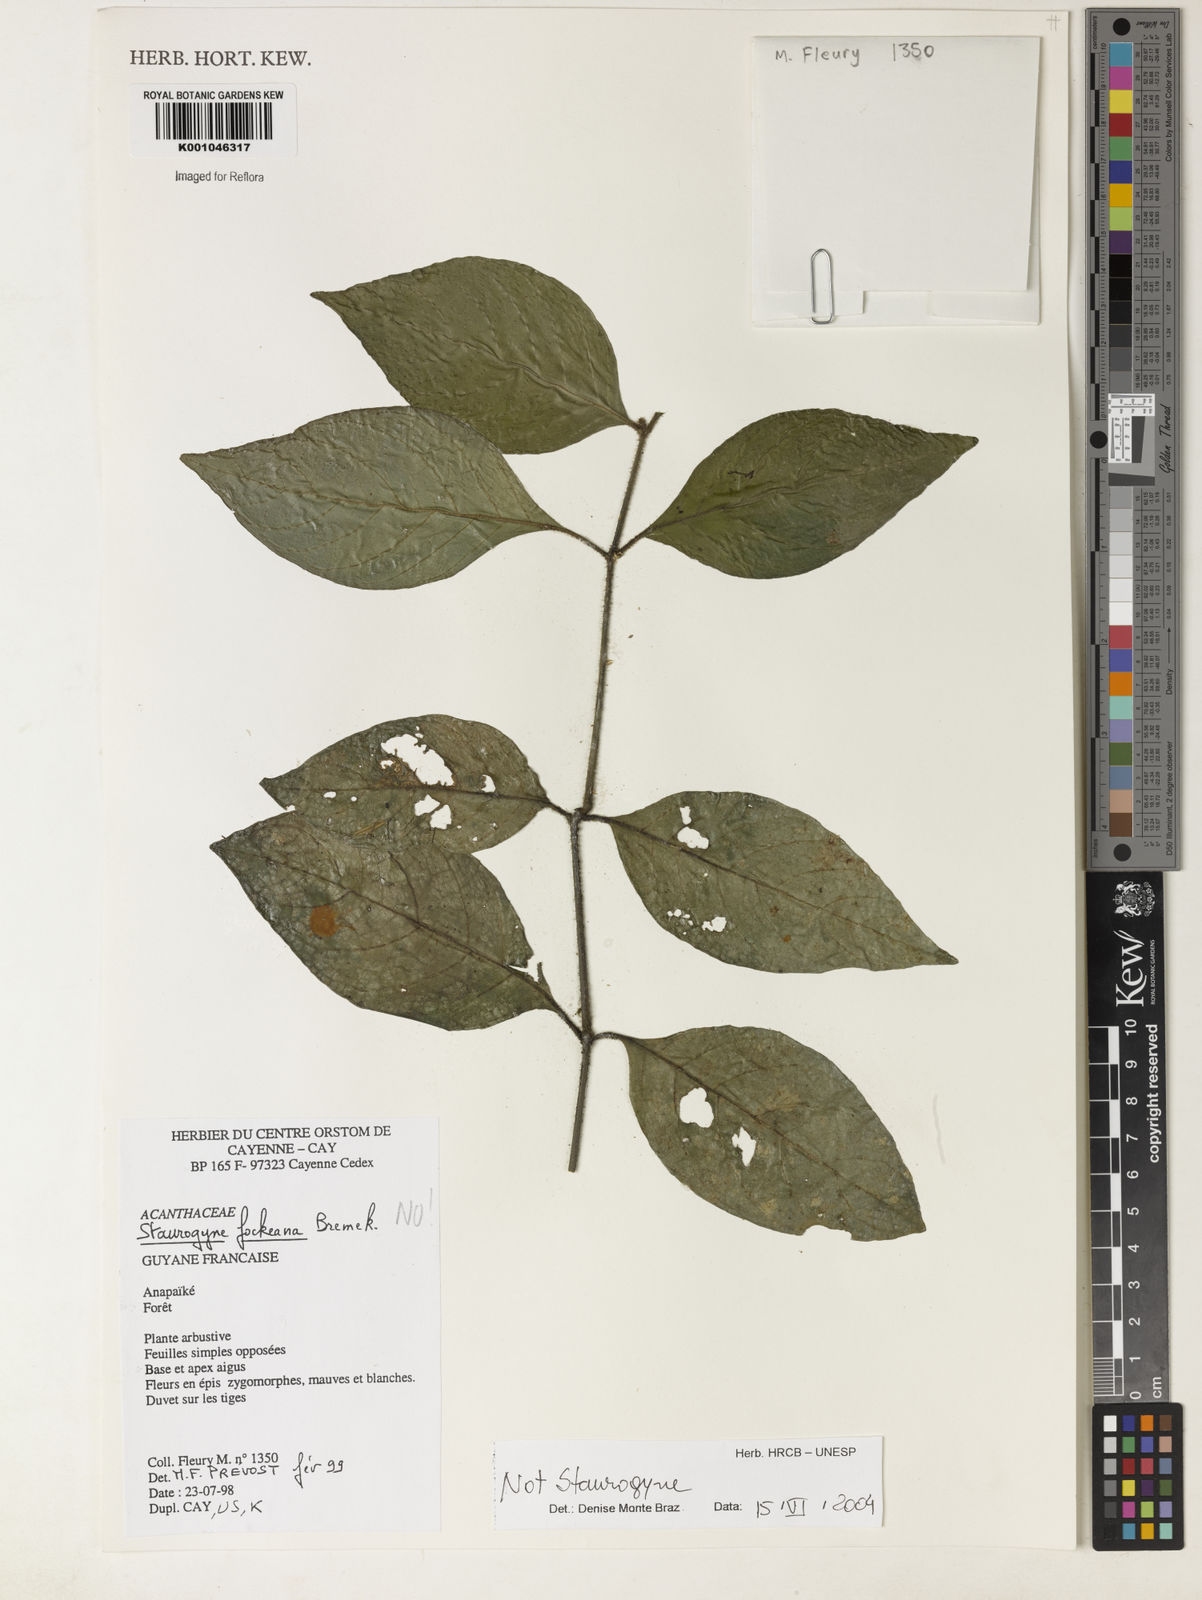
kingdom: Plantae
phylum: Tracheophyta
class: Magnoliopsida
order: Lamiales
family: Acanthaceae
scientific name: Acanthaceae
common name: Acanthaceae
